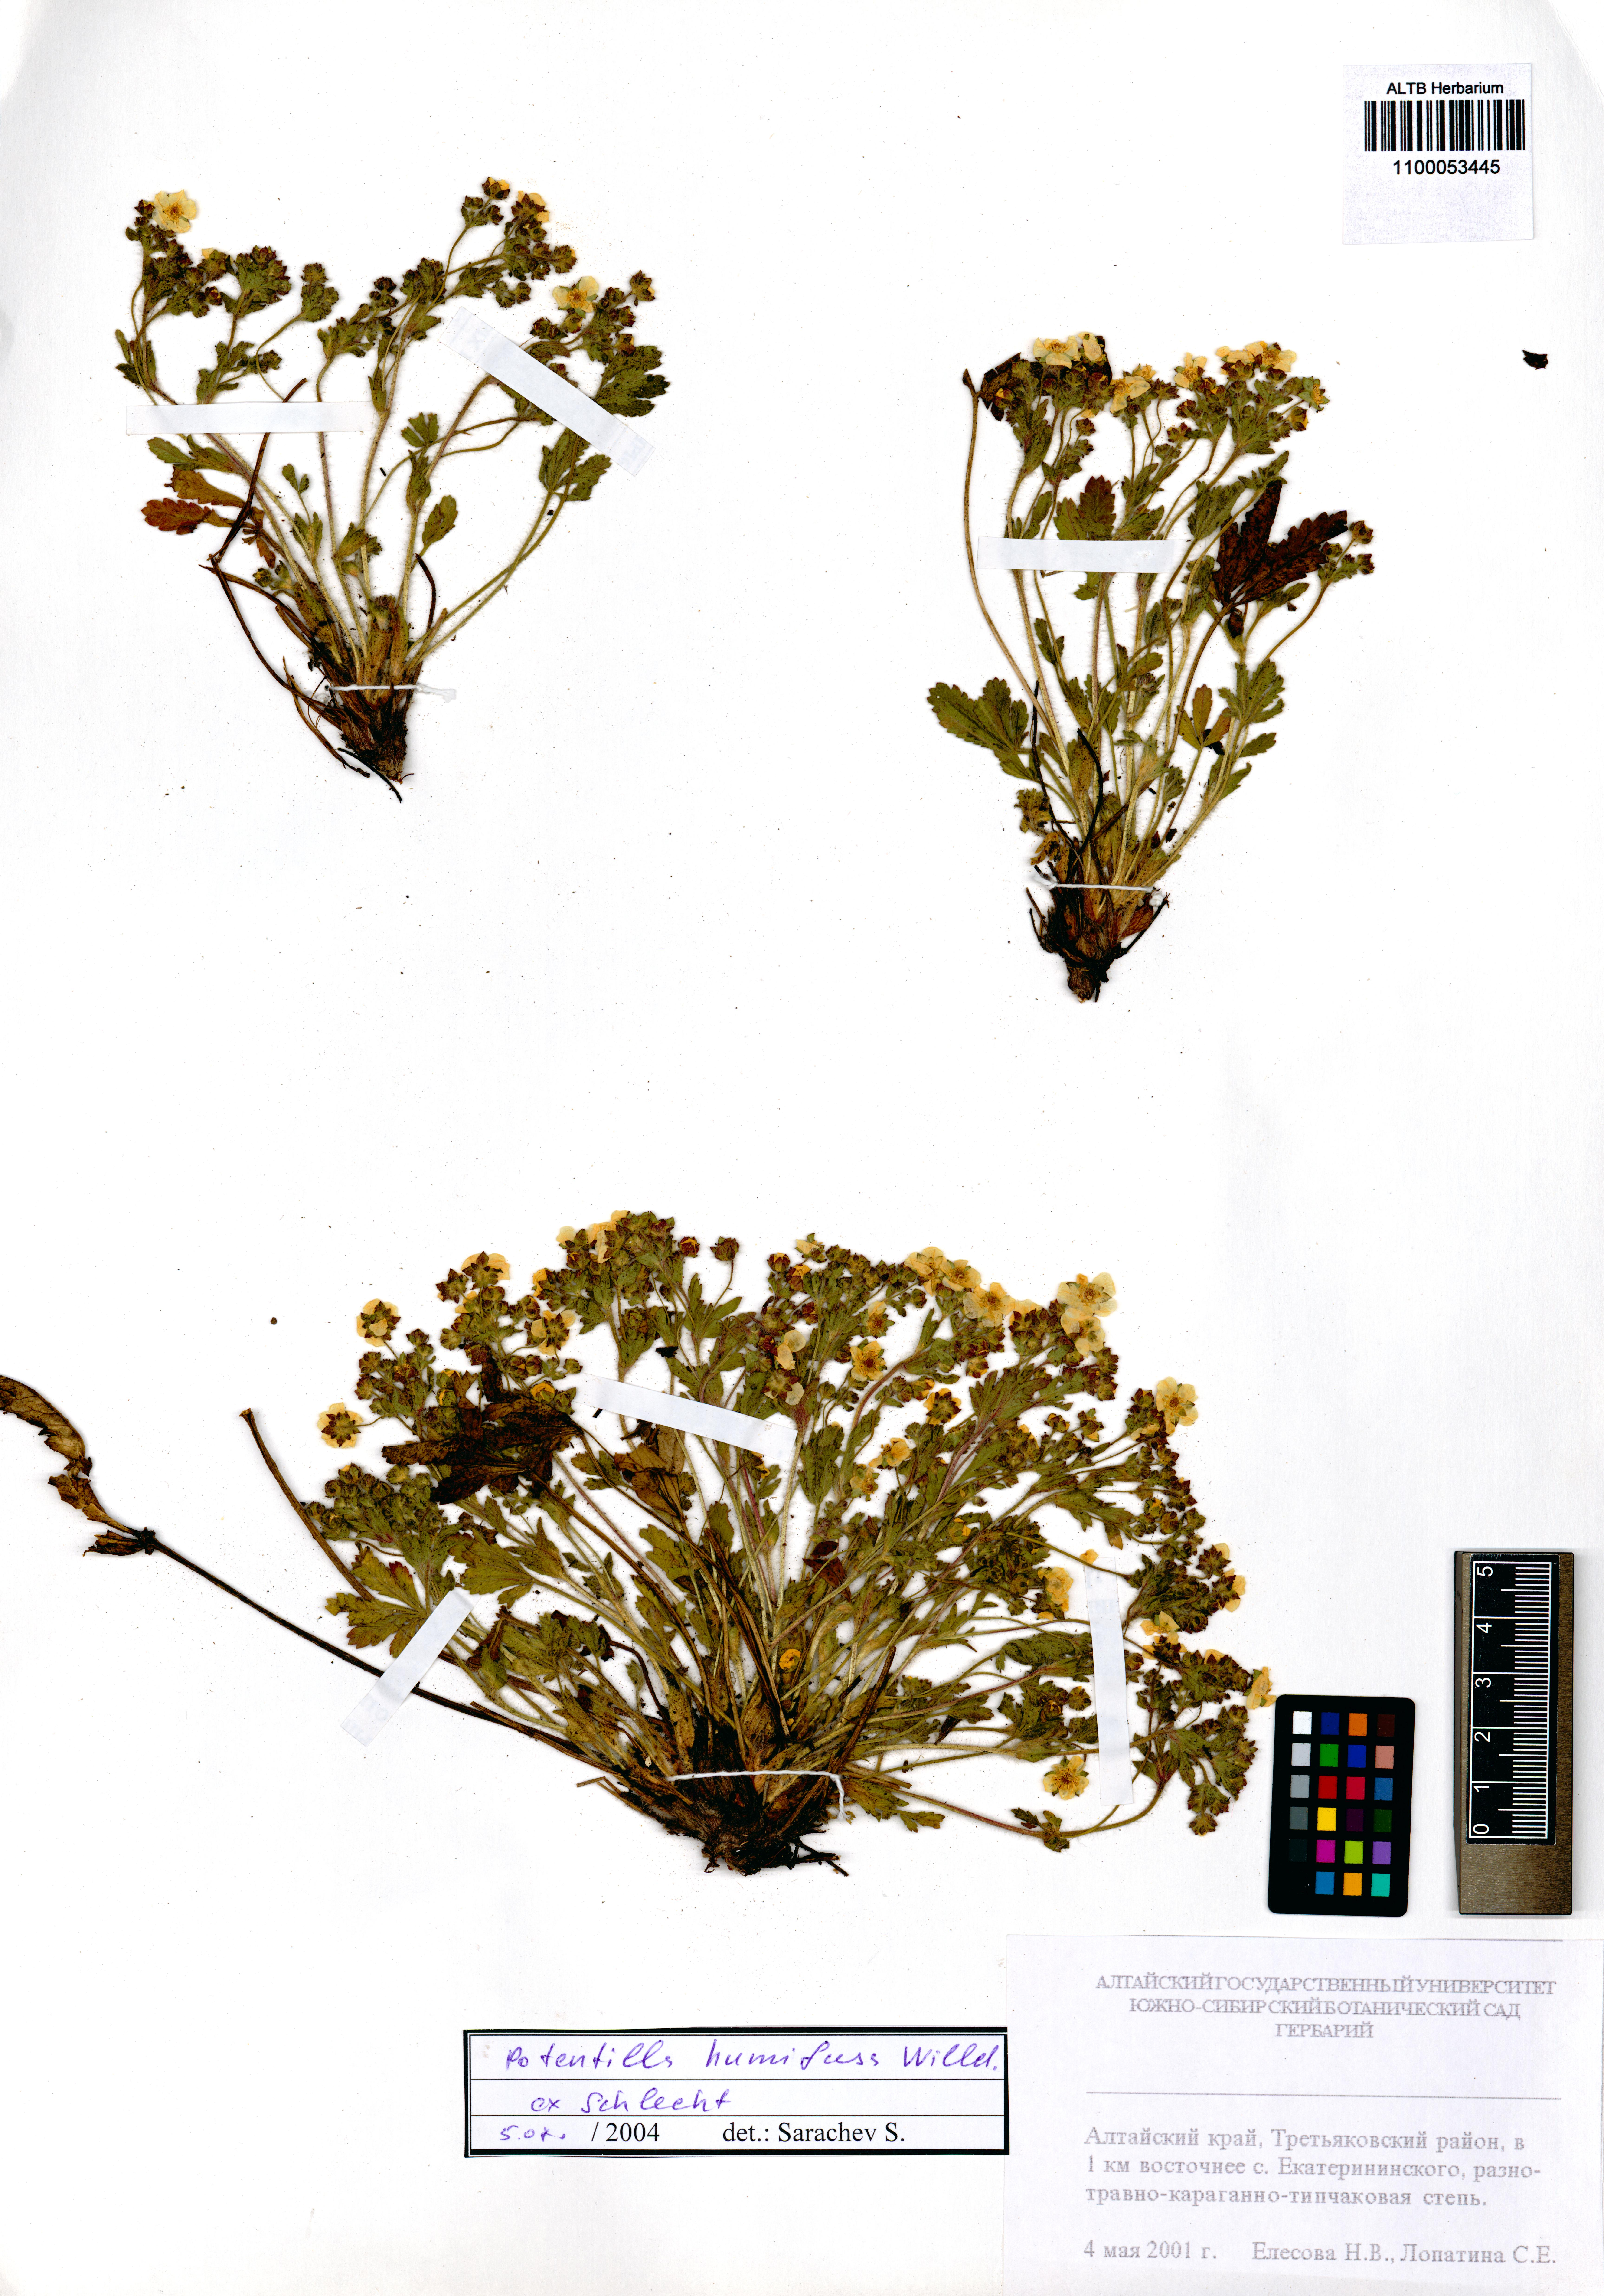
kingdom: Plantae
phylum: Tracheophyta
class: Magnoliopsida
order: Rosales
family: Rosaceae
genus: Potentilla
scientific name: Potentilla humifusa
